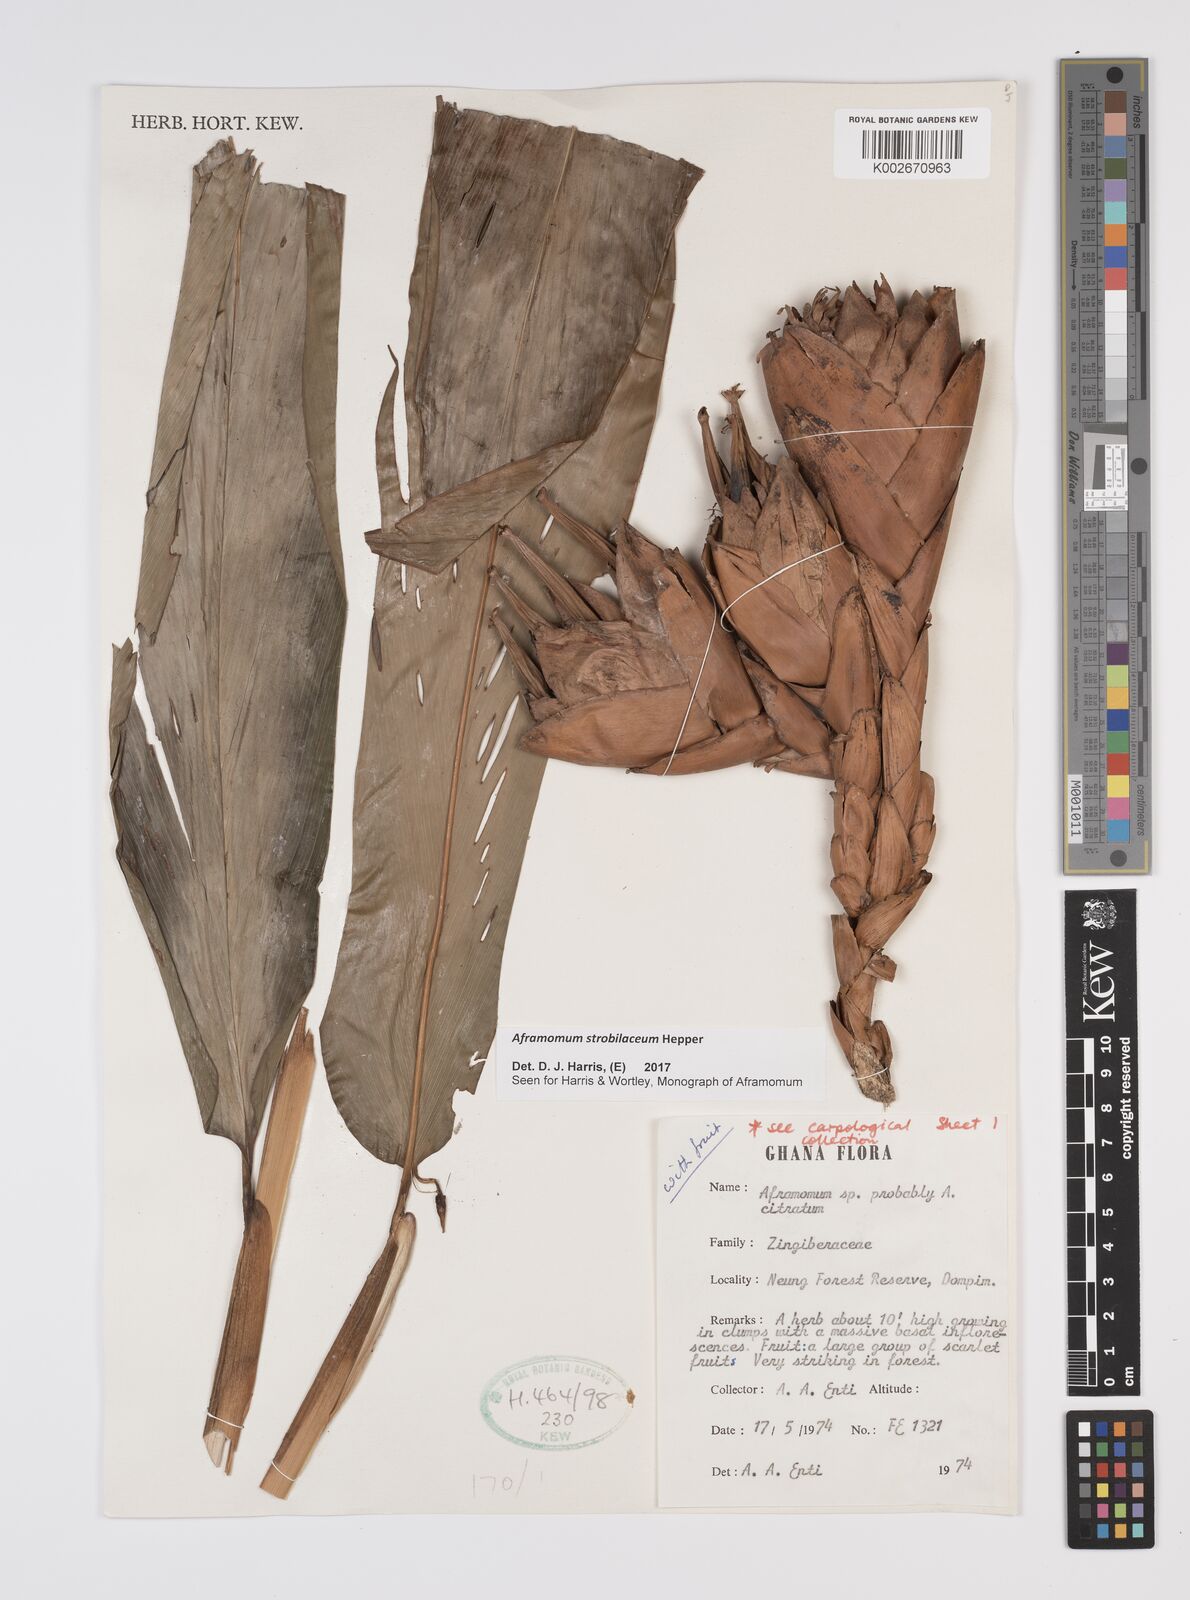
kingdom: Plantae
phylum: Tracheophyta
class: Liliopsida
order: Zingiberales
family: Zingiberaceae
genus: Aframomum
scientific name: Aframomum strobilaceum
